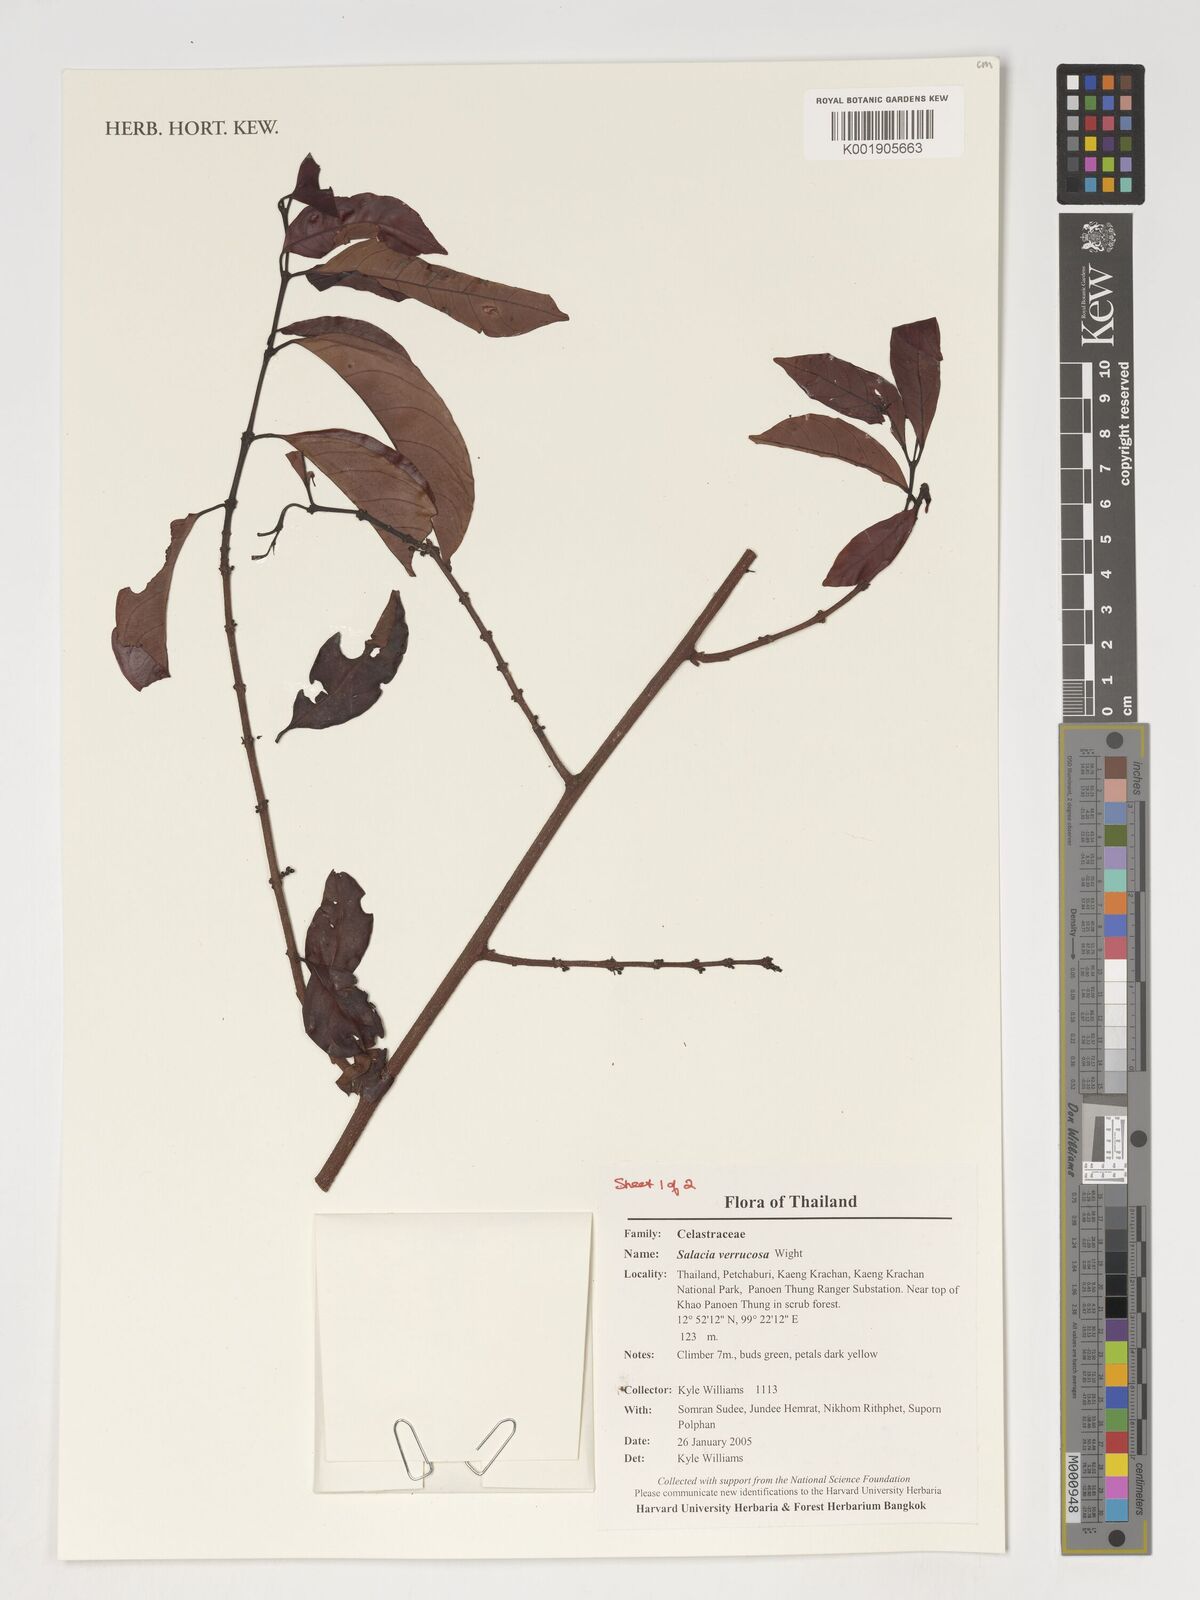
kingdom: Plantae
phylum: Tracheophyta
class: Magnoliopsida
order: Celastrales
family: Celastraceae
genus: Salacia
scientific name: Salacia verrucosa
